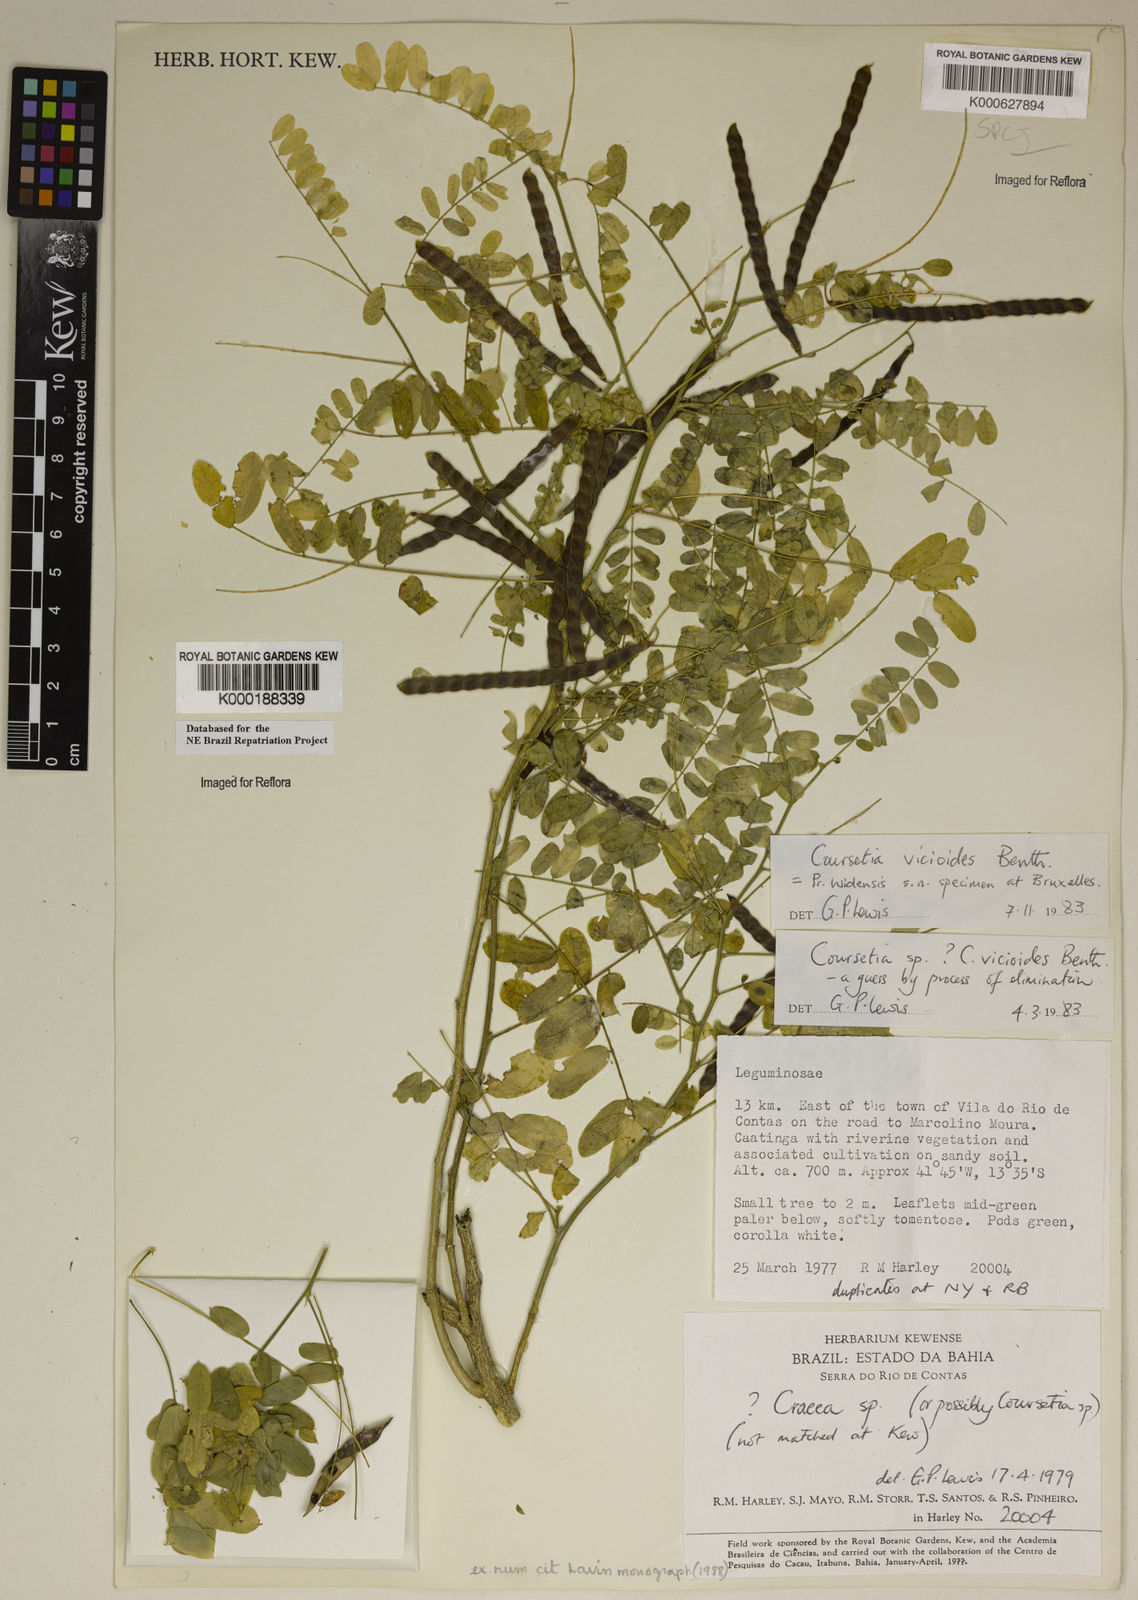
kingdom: Plantae
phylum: Tracheophyta
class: Magnoliopsida
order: Fabales
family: Fabaceae
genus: Coursetia
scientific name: Coursetia vicioides
